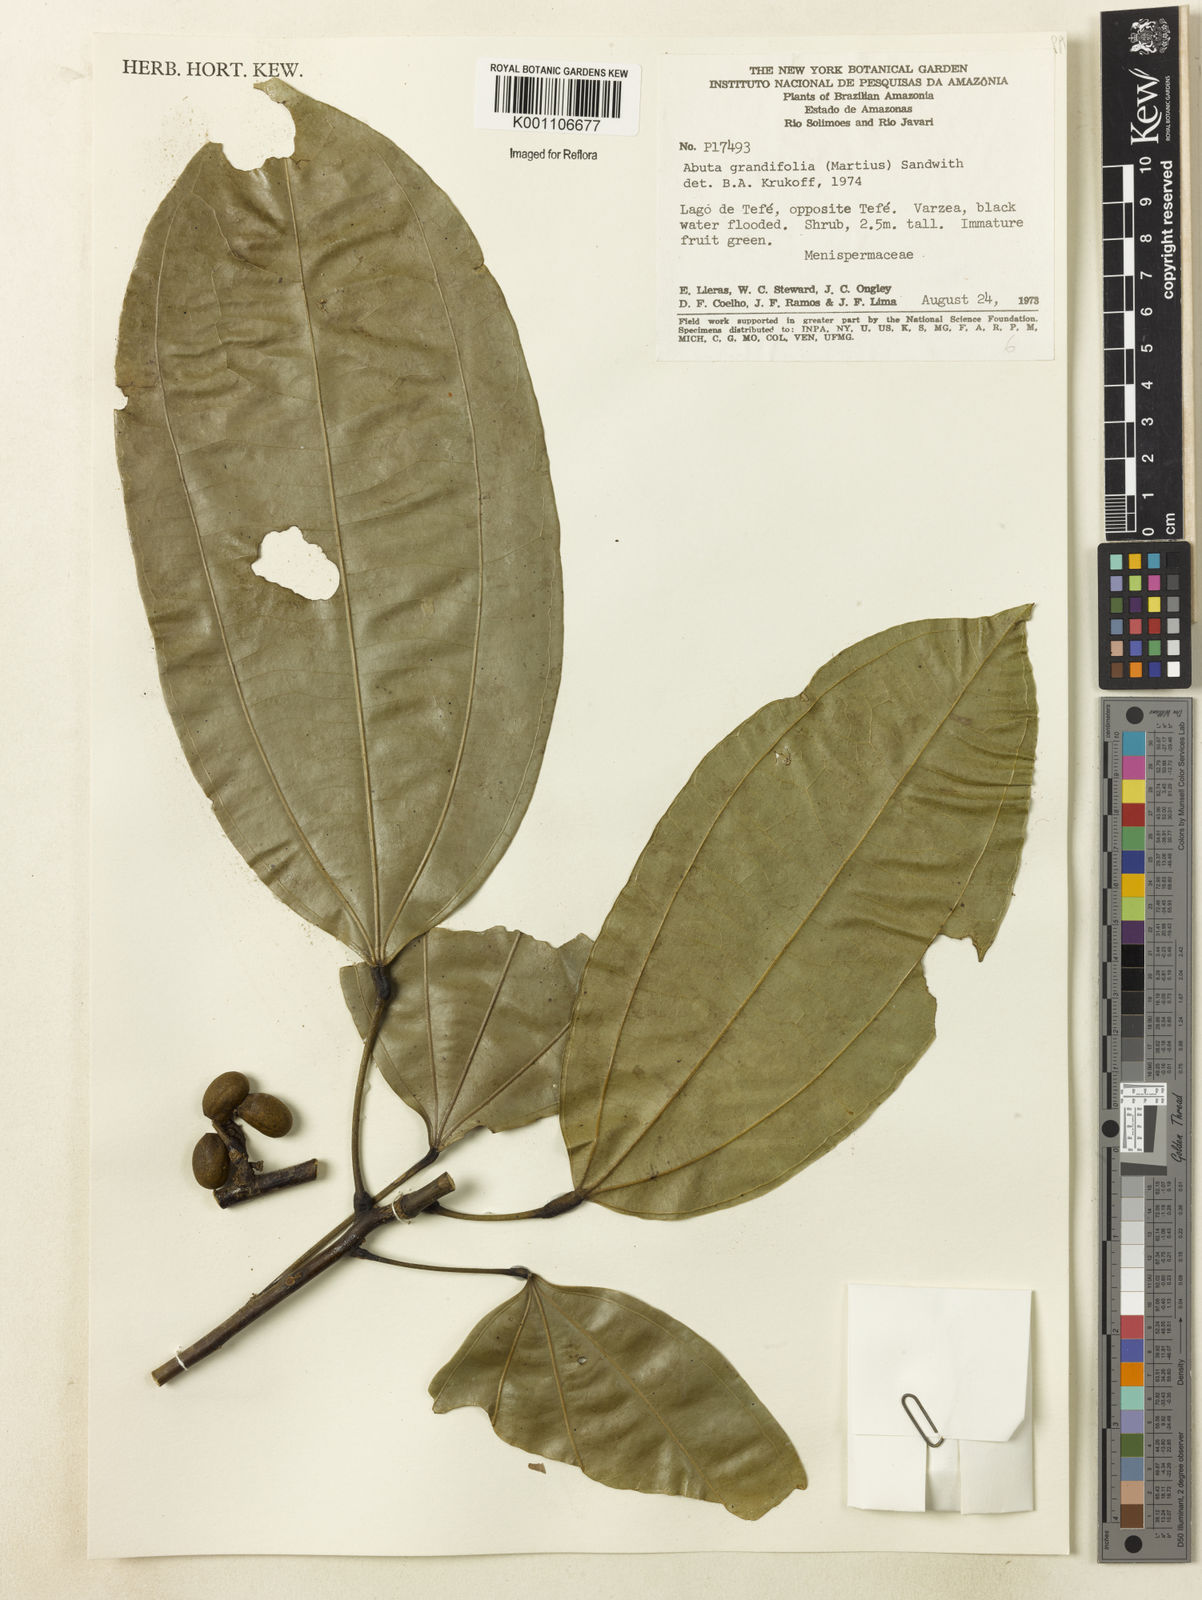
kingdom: Plantae
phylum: Tracheophyta
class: Magnoliopsida
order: Ranunculales
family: Menispermaceae
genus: Abuta
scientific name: Abuta grandifolia
